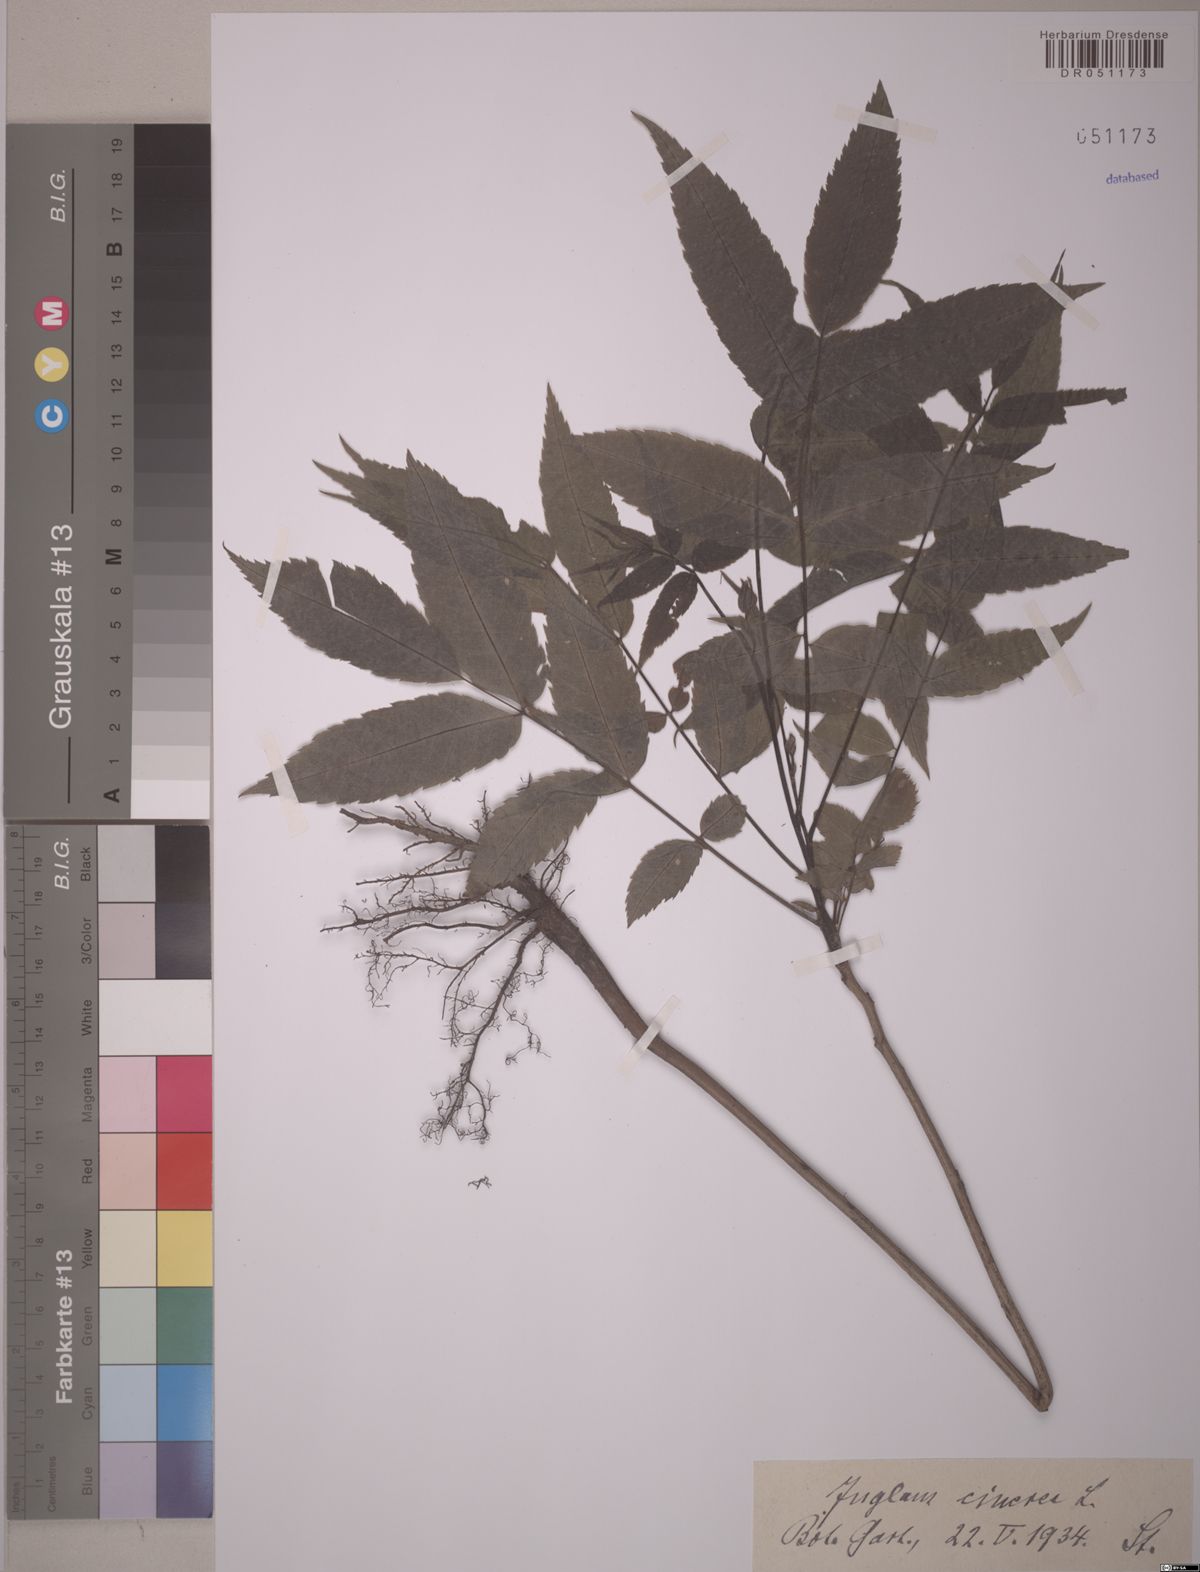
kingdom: Plantae
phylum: Tracheophyta
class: Magnoliopsida
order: Fagales
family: Juglandaceae
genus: Juglans
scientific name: Juglans cinerea
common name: Butternut
